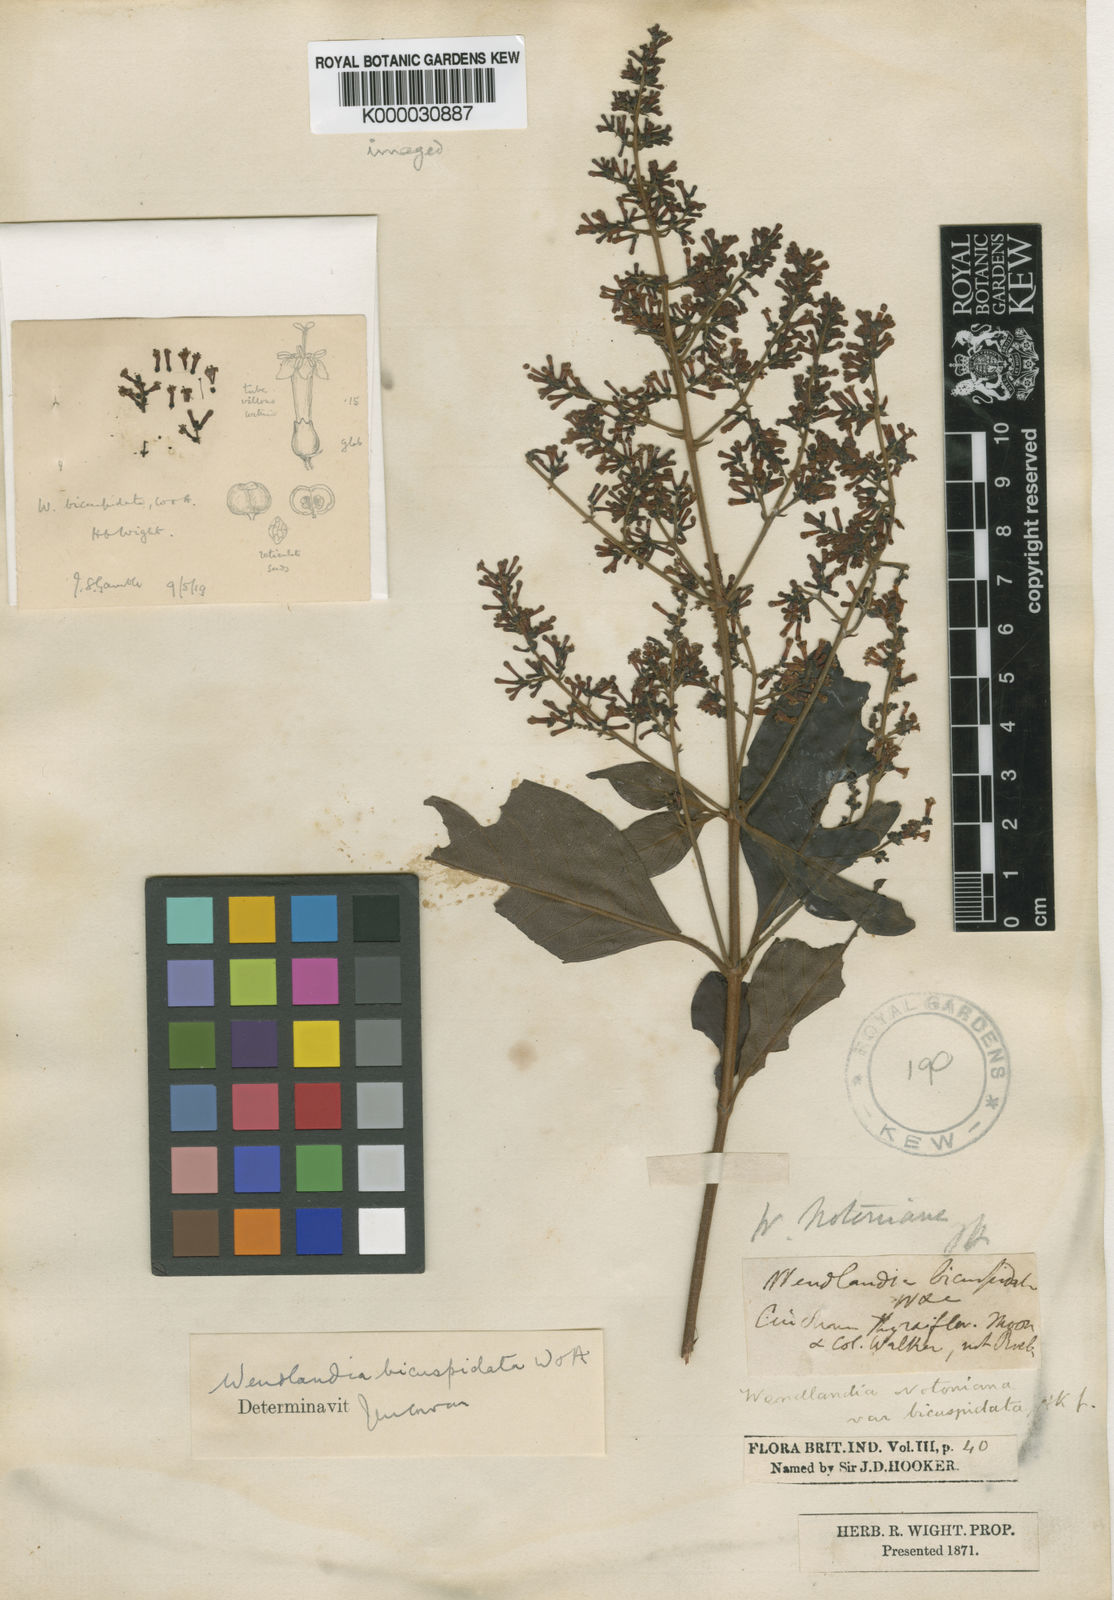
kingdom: Plantae
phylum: Tracheophyta
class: Magnoliopsida
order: Gentianales
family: Rubiaceae
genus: Wendlandia
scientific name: Wendlandia
